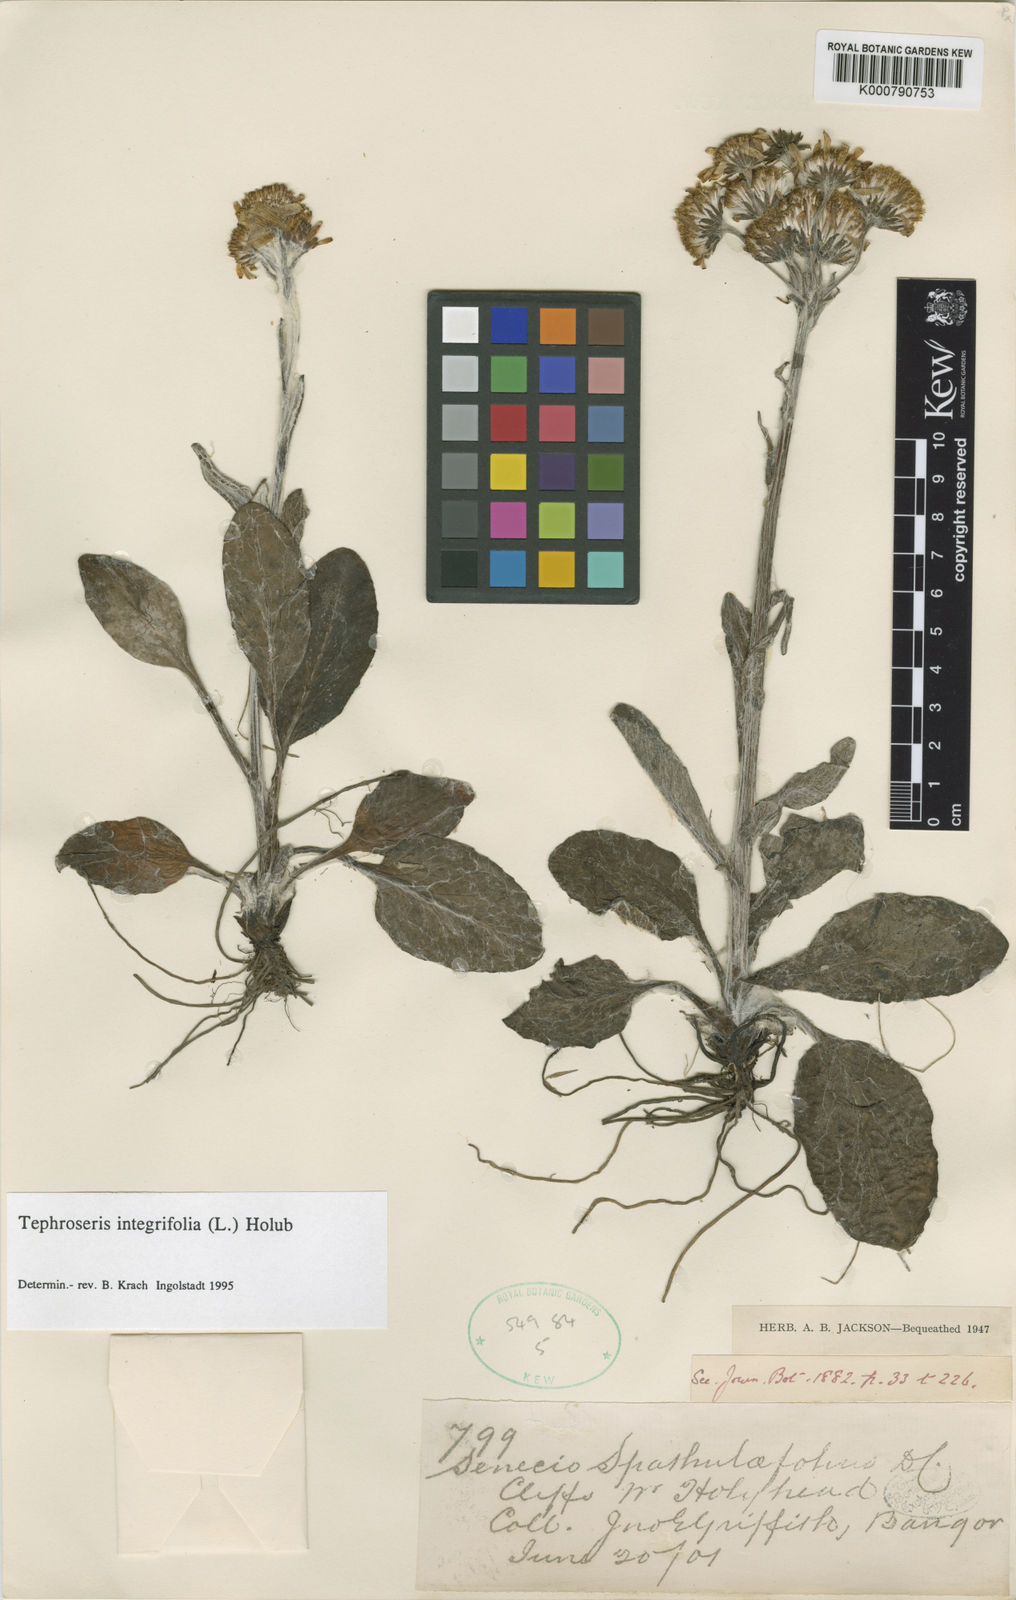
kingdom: Plantae
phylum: Tracheophyta
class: Magnoliopsida
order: Asterales
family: Asteraceae
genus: Tephroseris
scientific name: Tephroseris integrifolia
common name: Field fleawort
